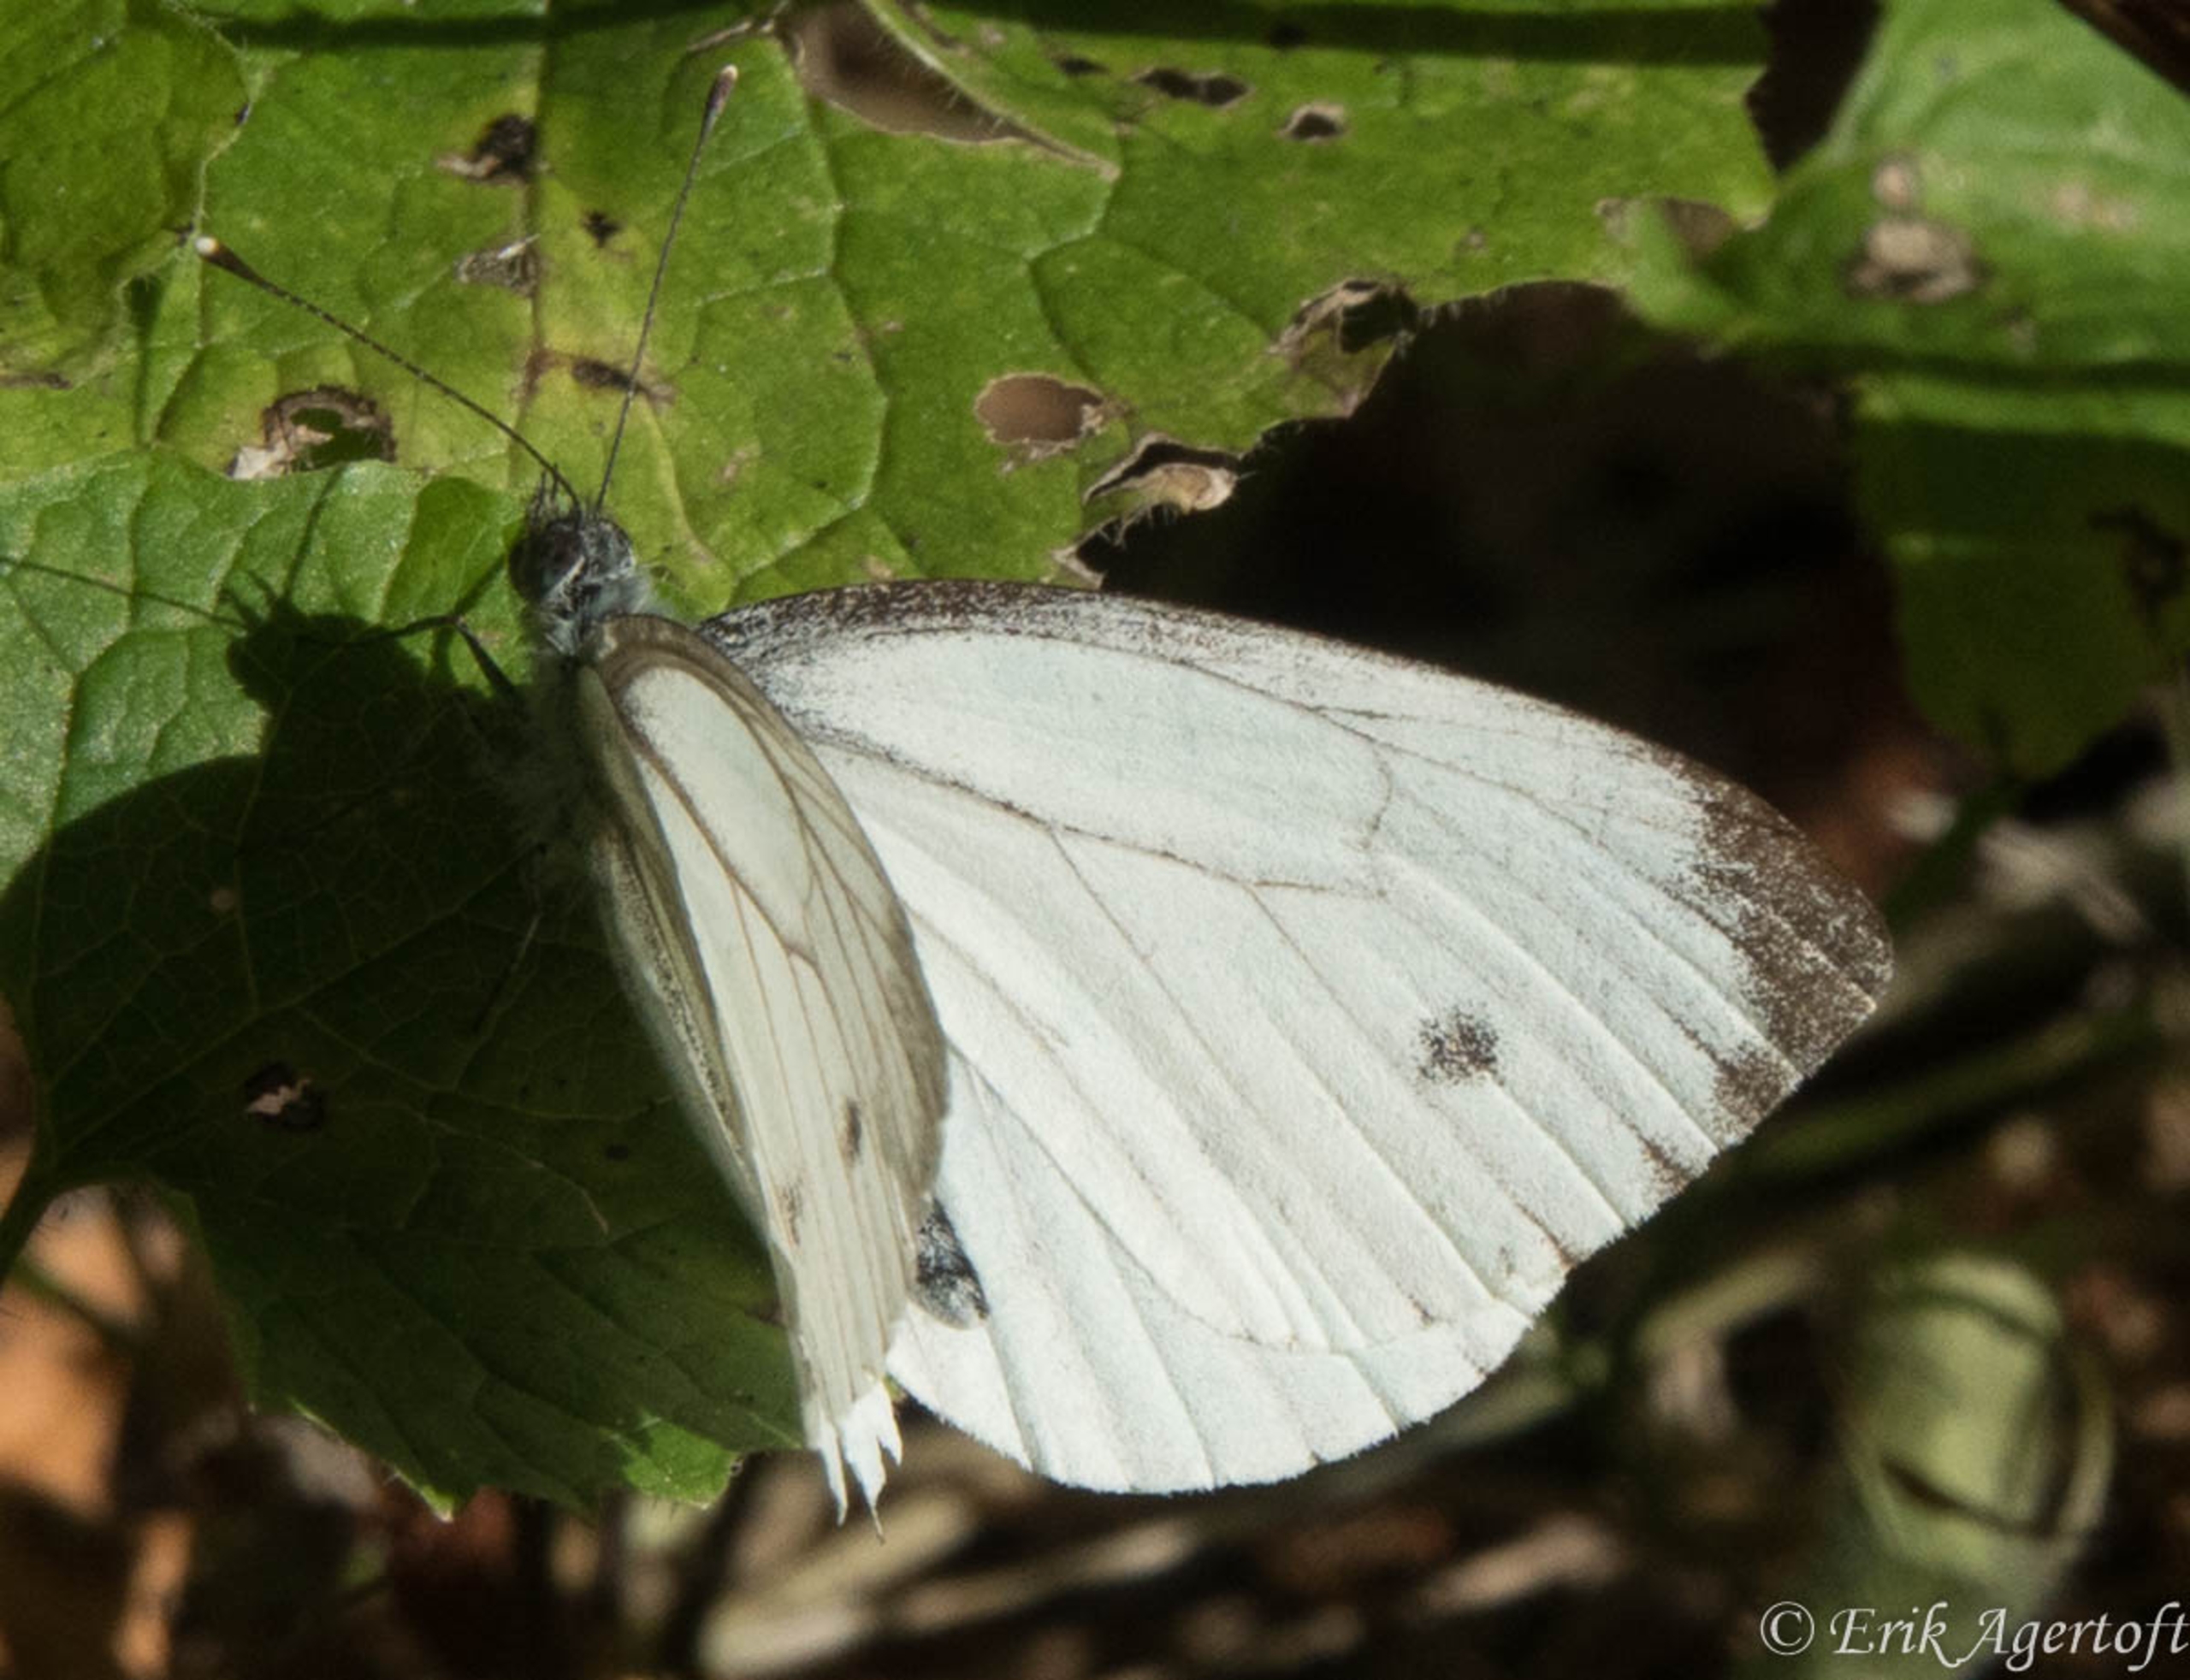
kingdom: Animalia
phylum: Arthropoda
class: Insecta
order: Lepidoptera
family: Pieridae
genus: Pieris
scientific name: Pieris rapae
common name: Lille kålsommerfugl
